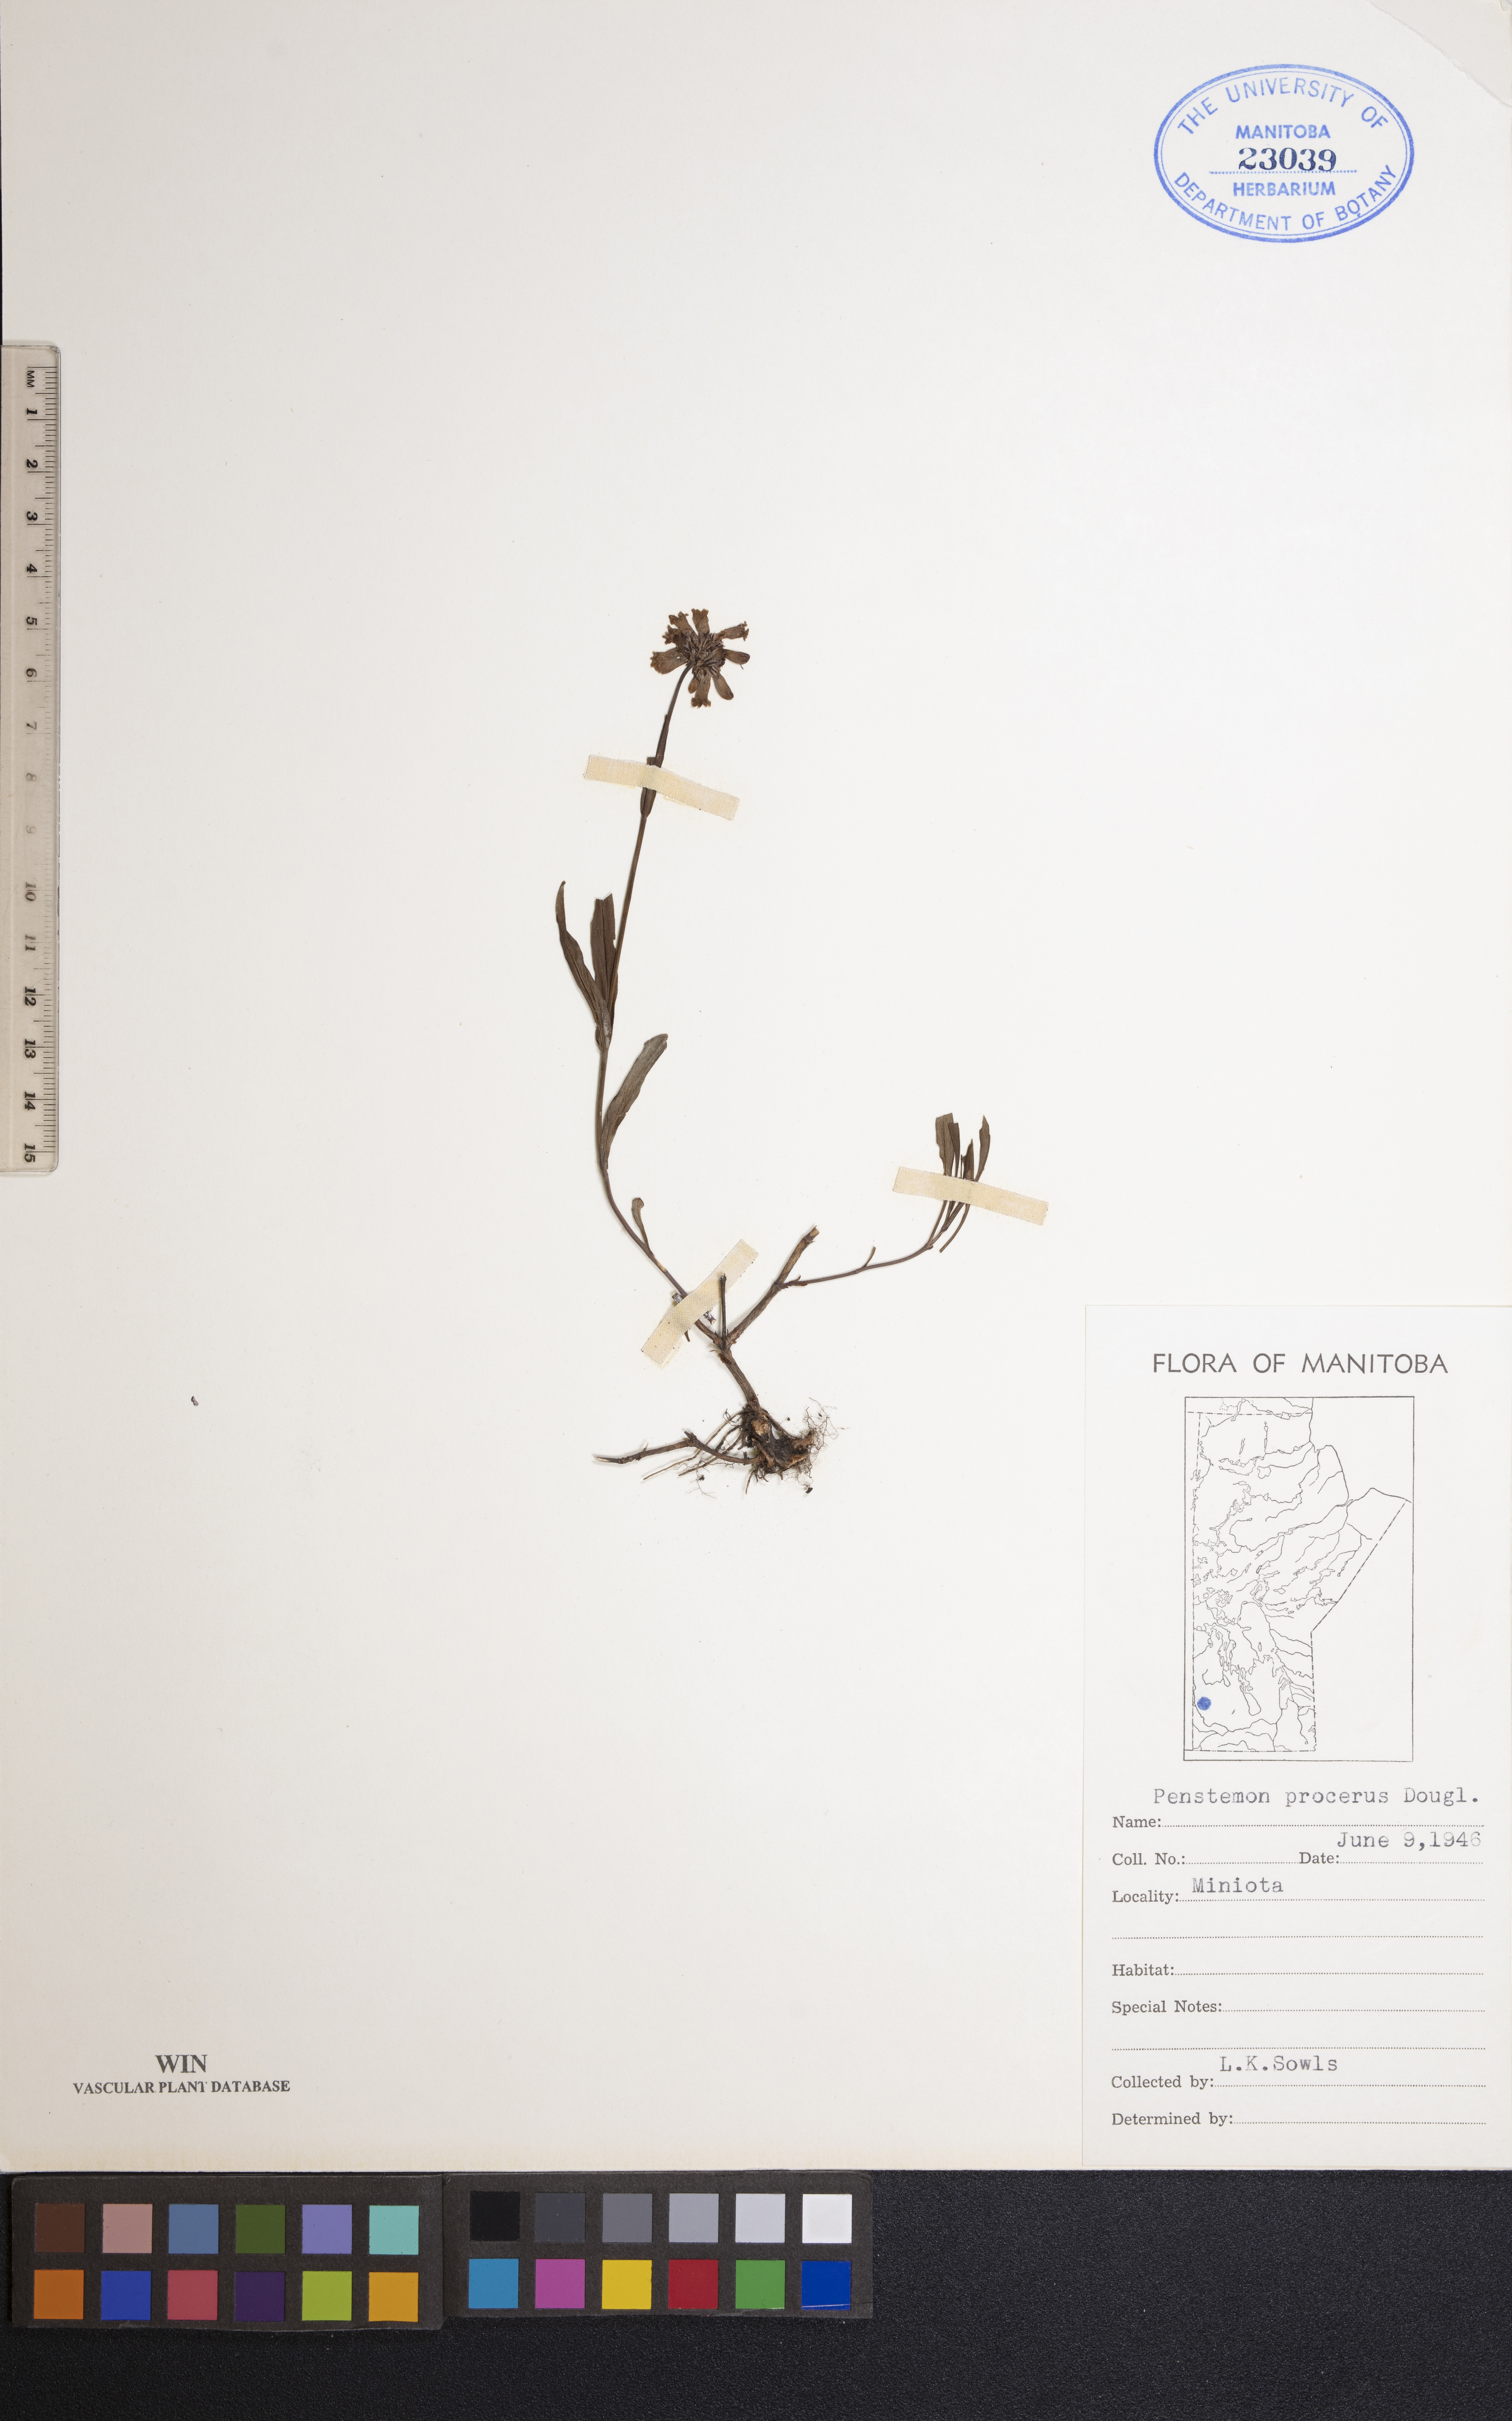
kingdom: Plantae
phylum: Tracheophyta
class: Magnoliopsida
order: Lamiales
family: Plantaginaceae
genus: Penstemon
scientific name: Penstemon procerus
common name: Small-flower penstemon
